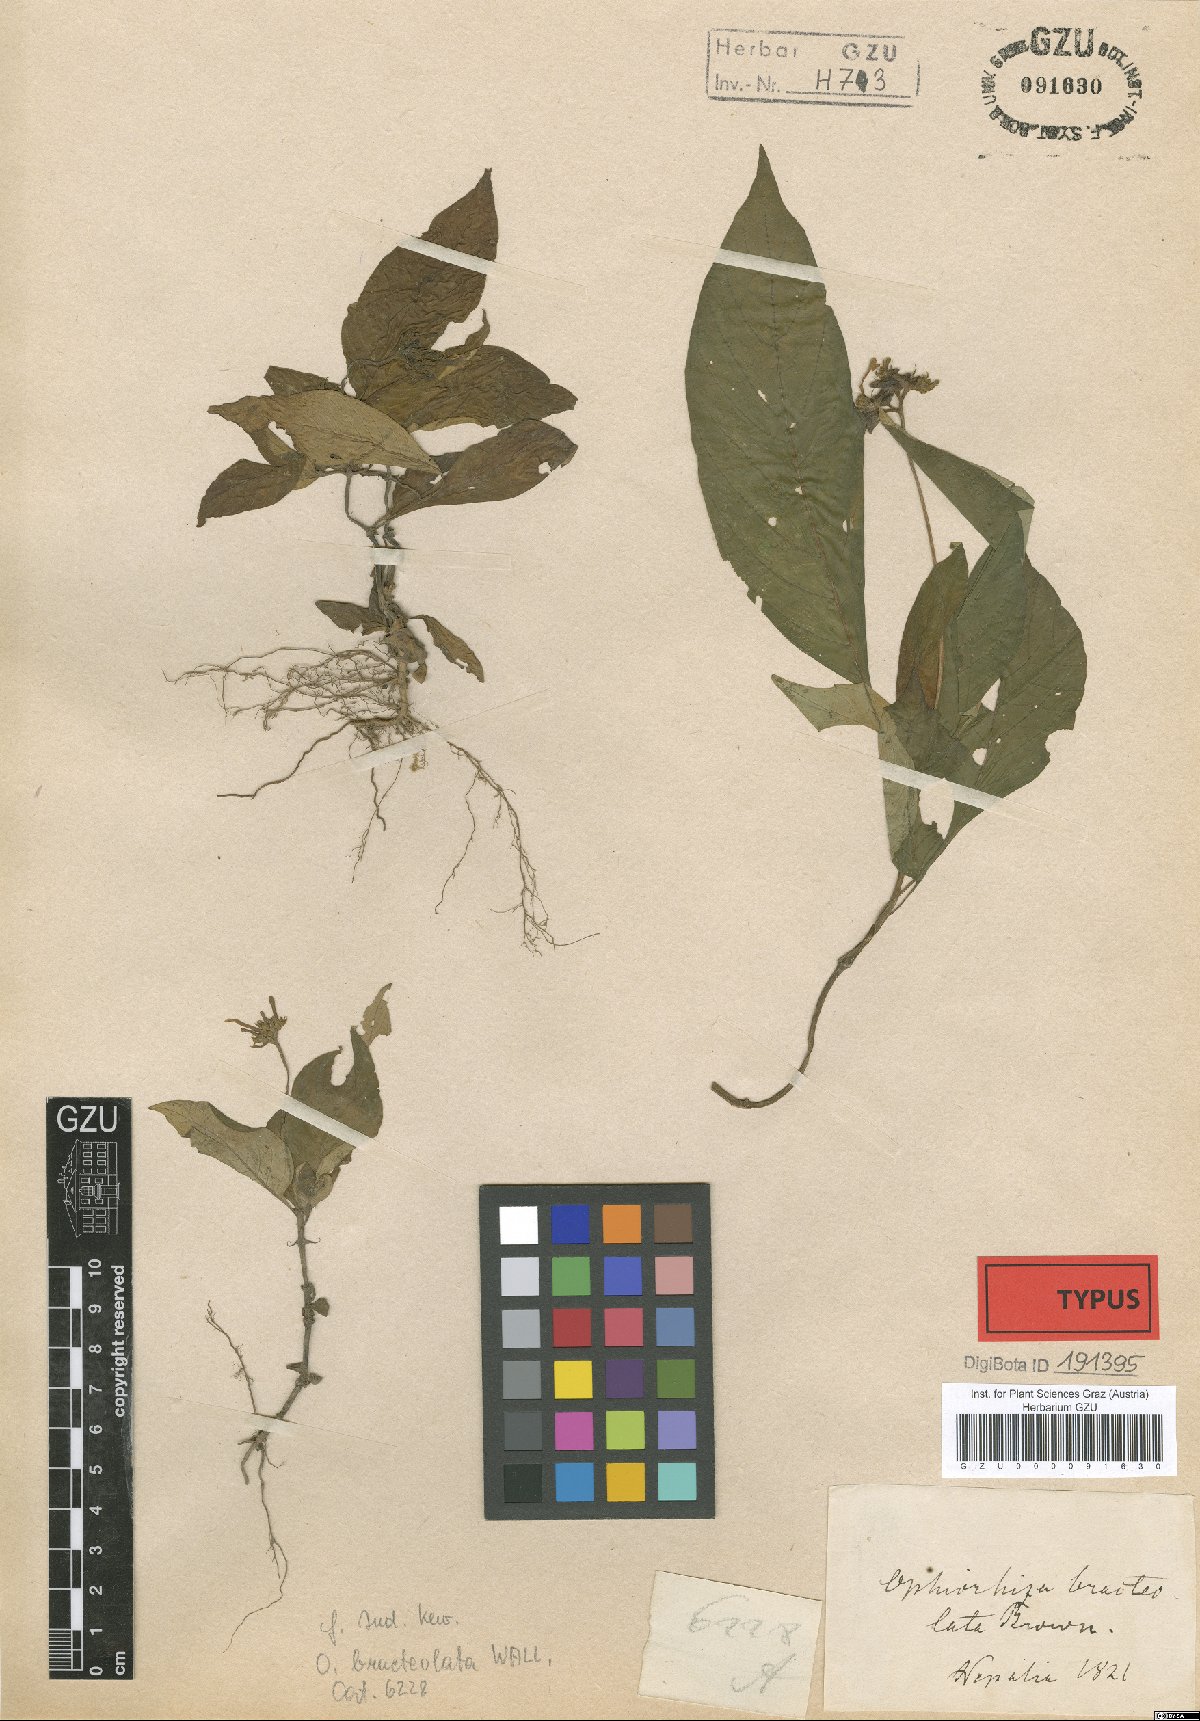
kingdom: Plantae
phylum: Tracheophyta
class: Magnoliopsida
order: Gentianales
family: Rubiaceae
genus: Ophiorrhiza
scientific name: Ophiorrhiza fasciculata
